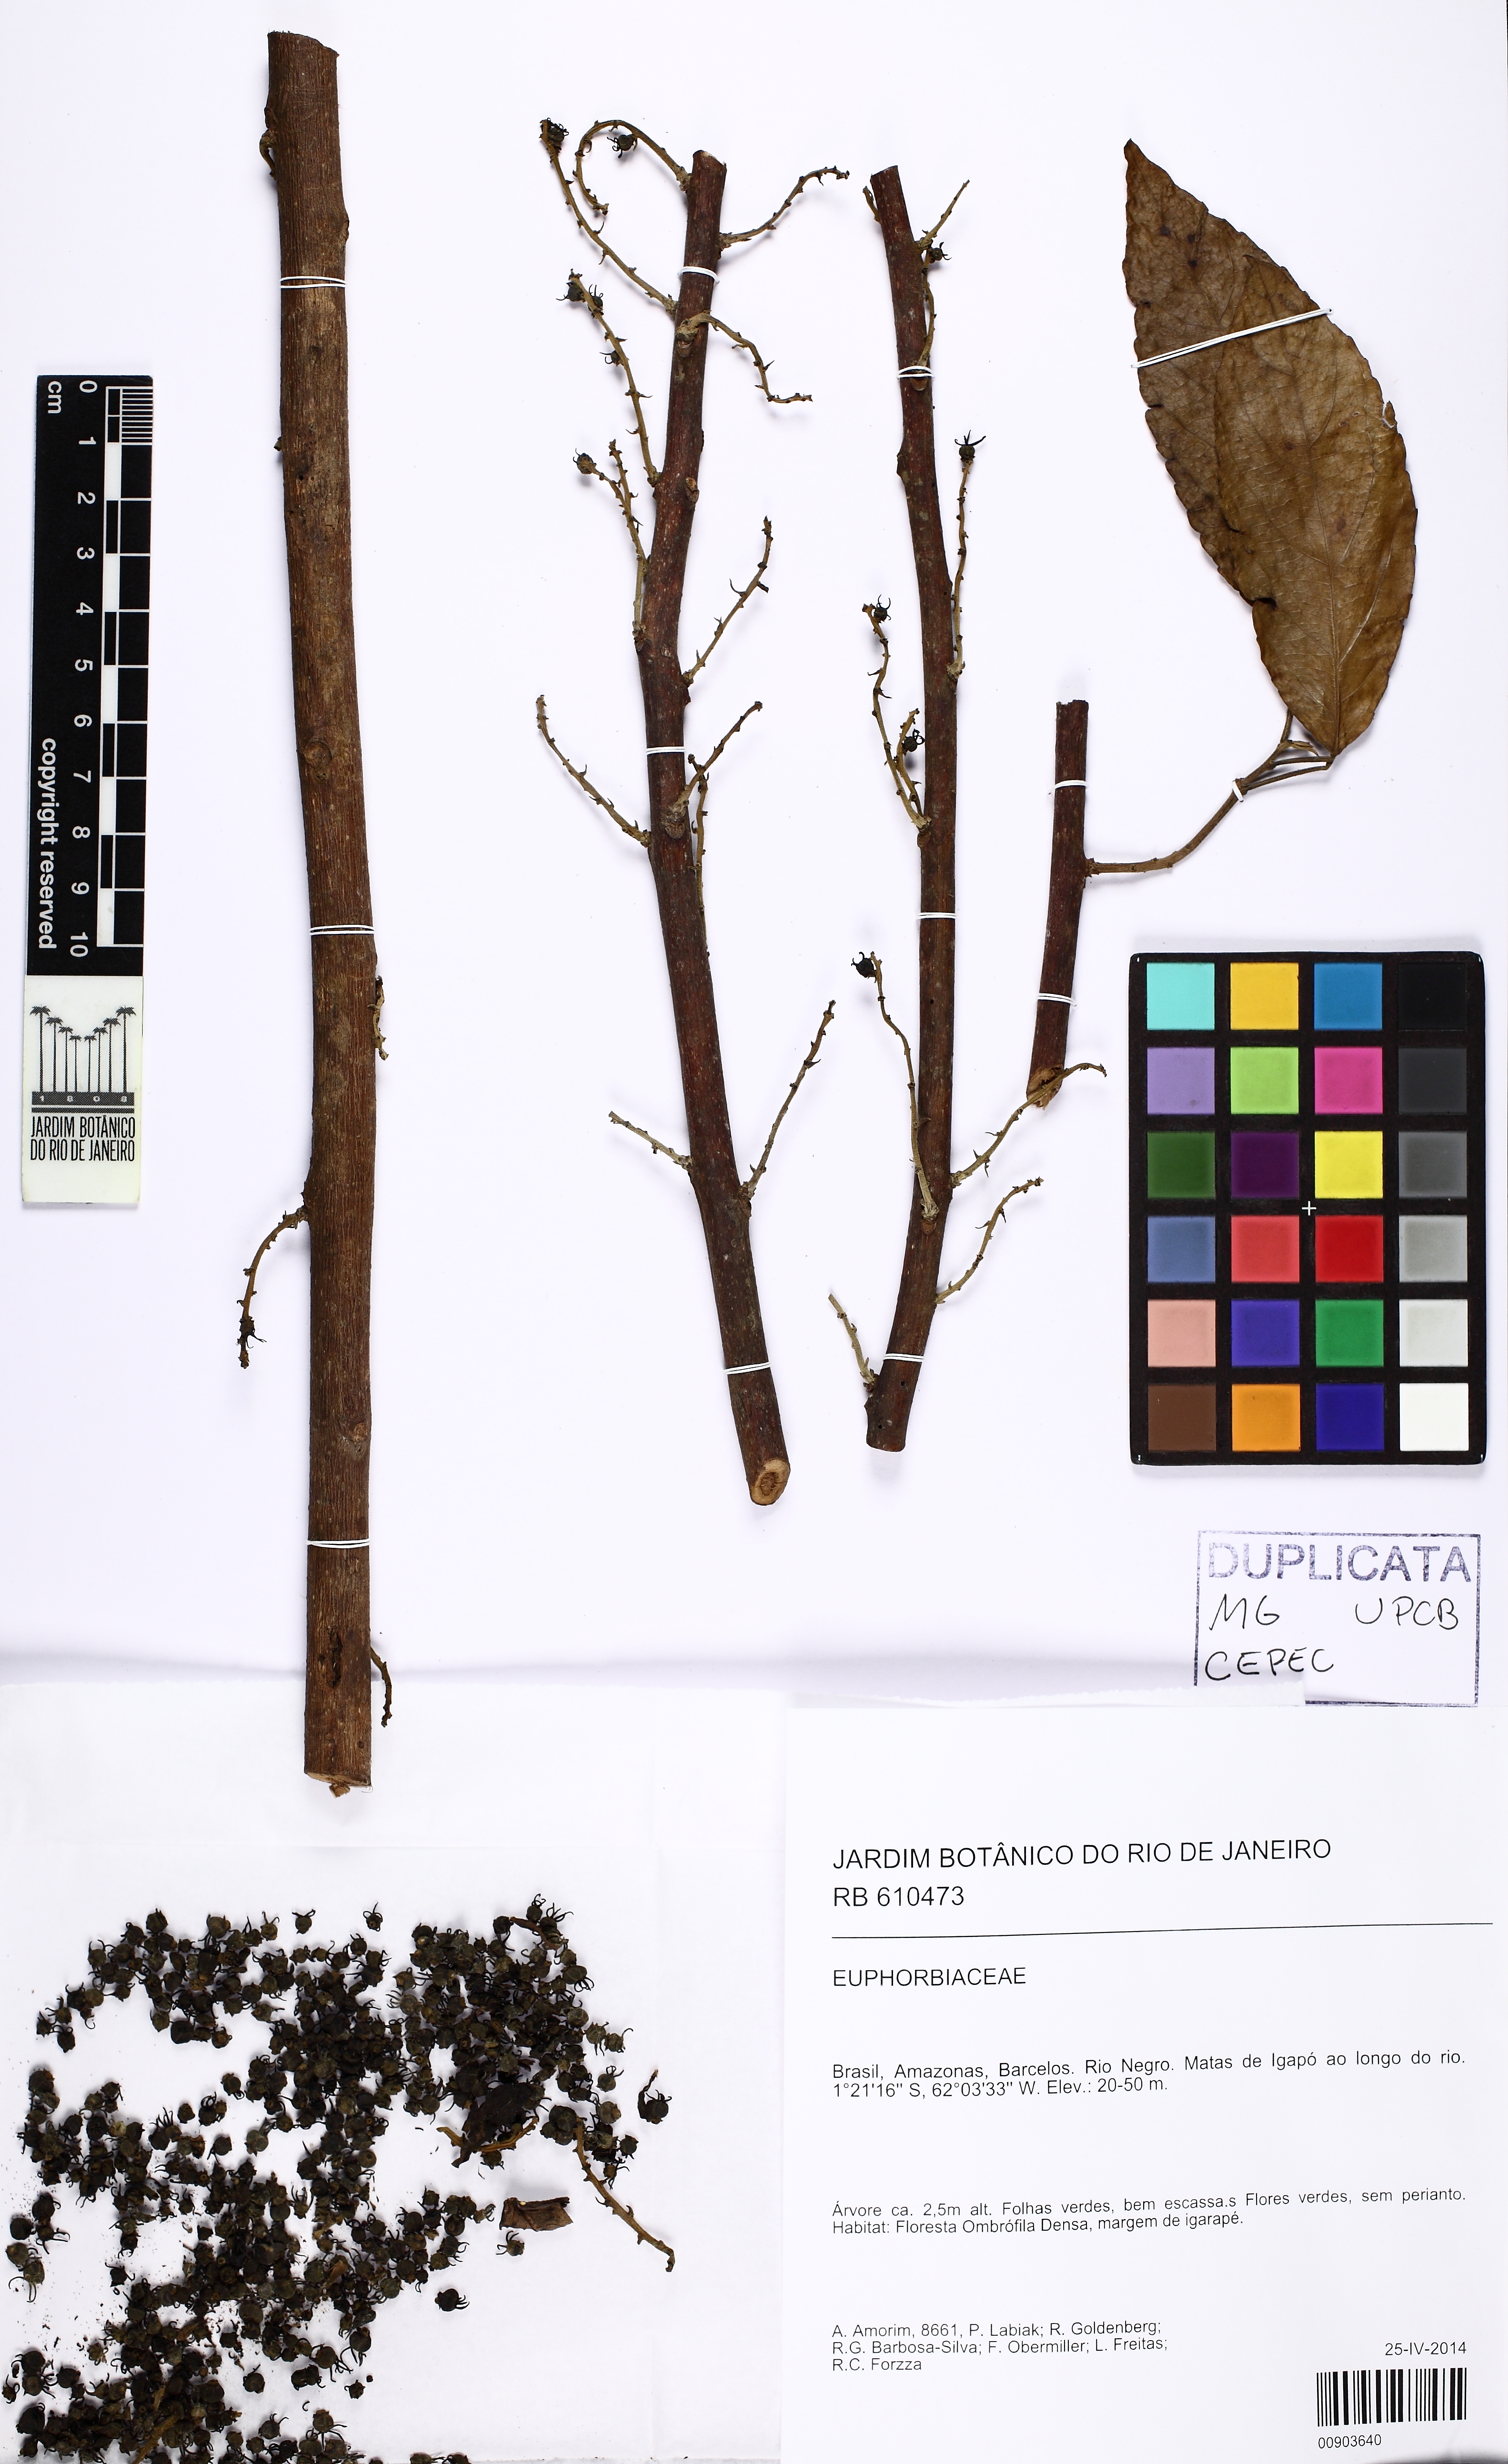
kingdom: Plantae
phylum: Tracheophyta
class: Magnoliopsida
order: Malpighiales
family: Euphorbiaceae
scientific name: Euphorbiaceae
